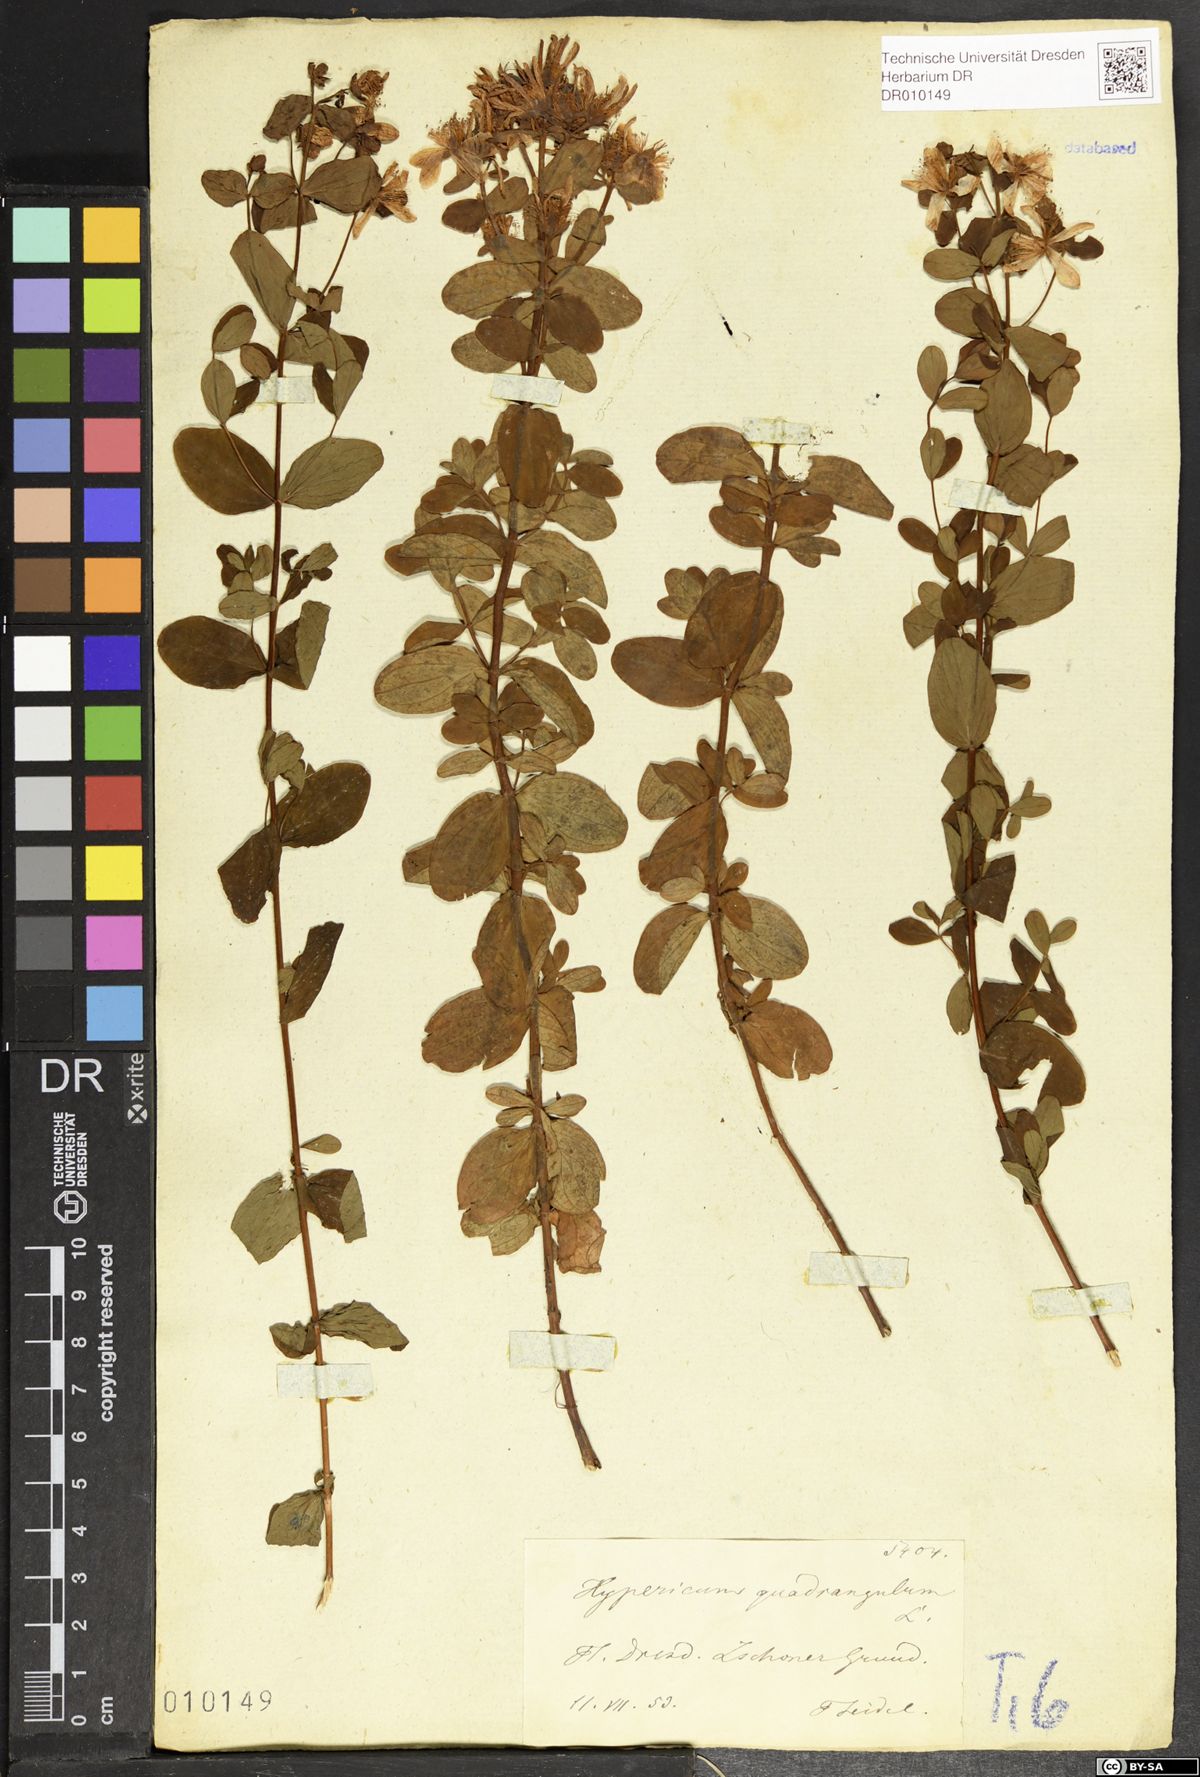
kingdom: Plantae
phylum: Tracheophyta
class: Magnoliopsida
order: Malpighiales
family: Hypericaceae
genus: Hypericum
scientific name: Hypericum maculatum
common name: Imperforate st. john's-wort
